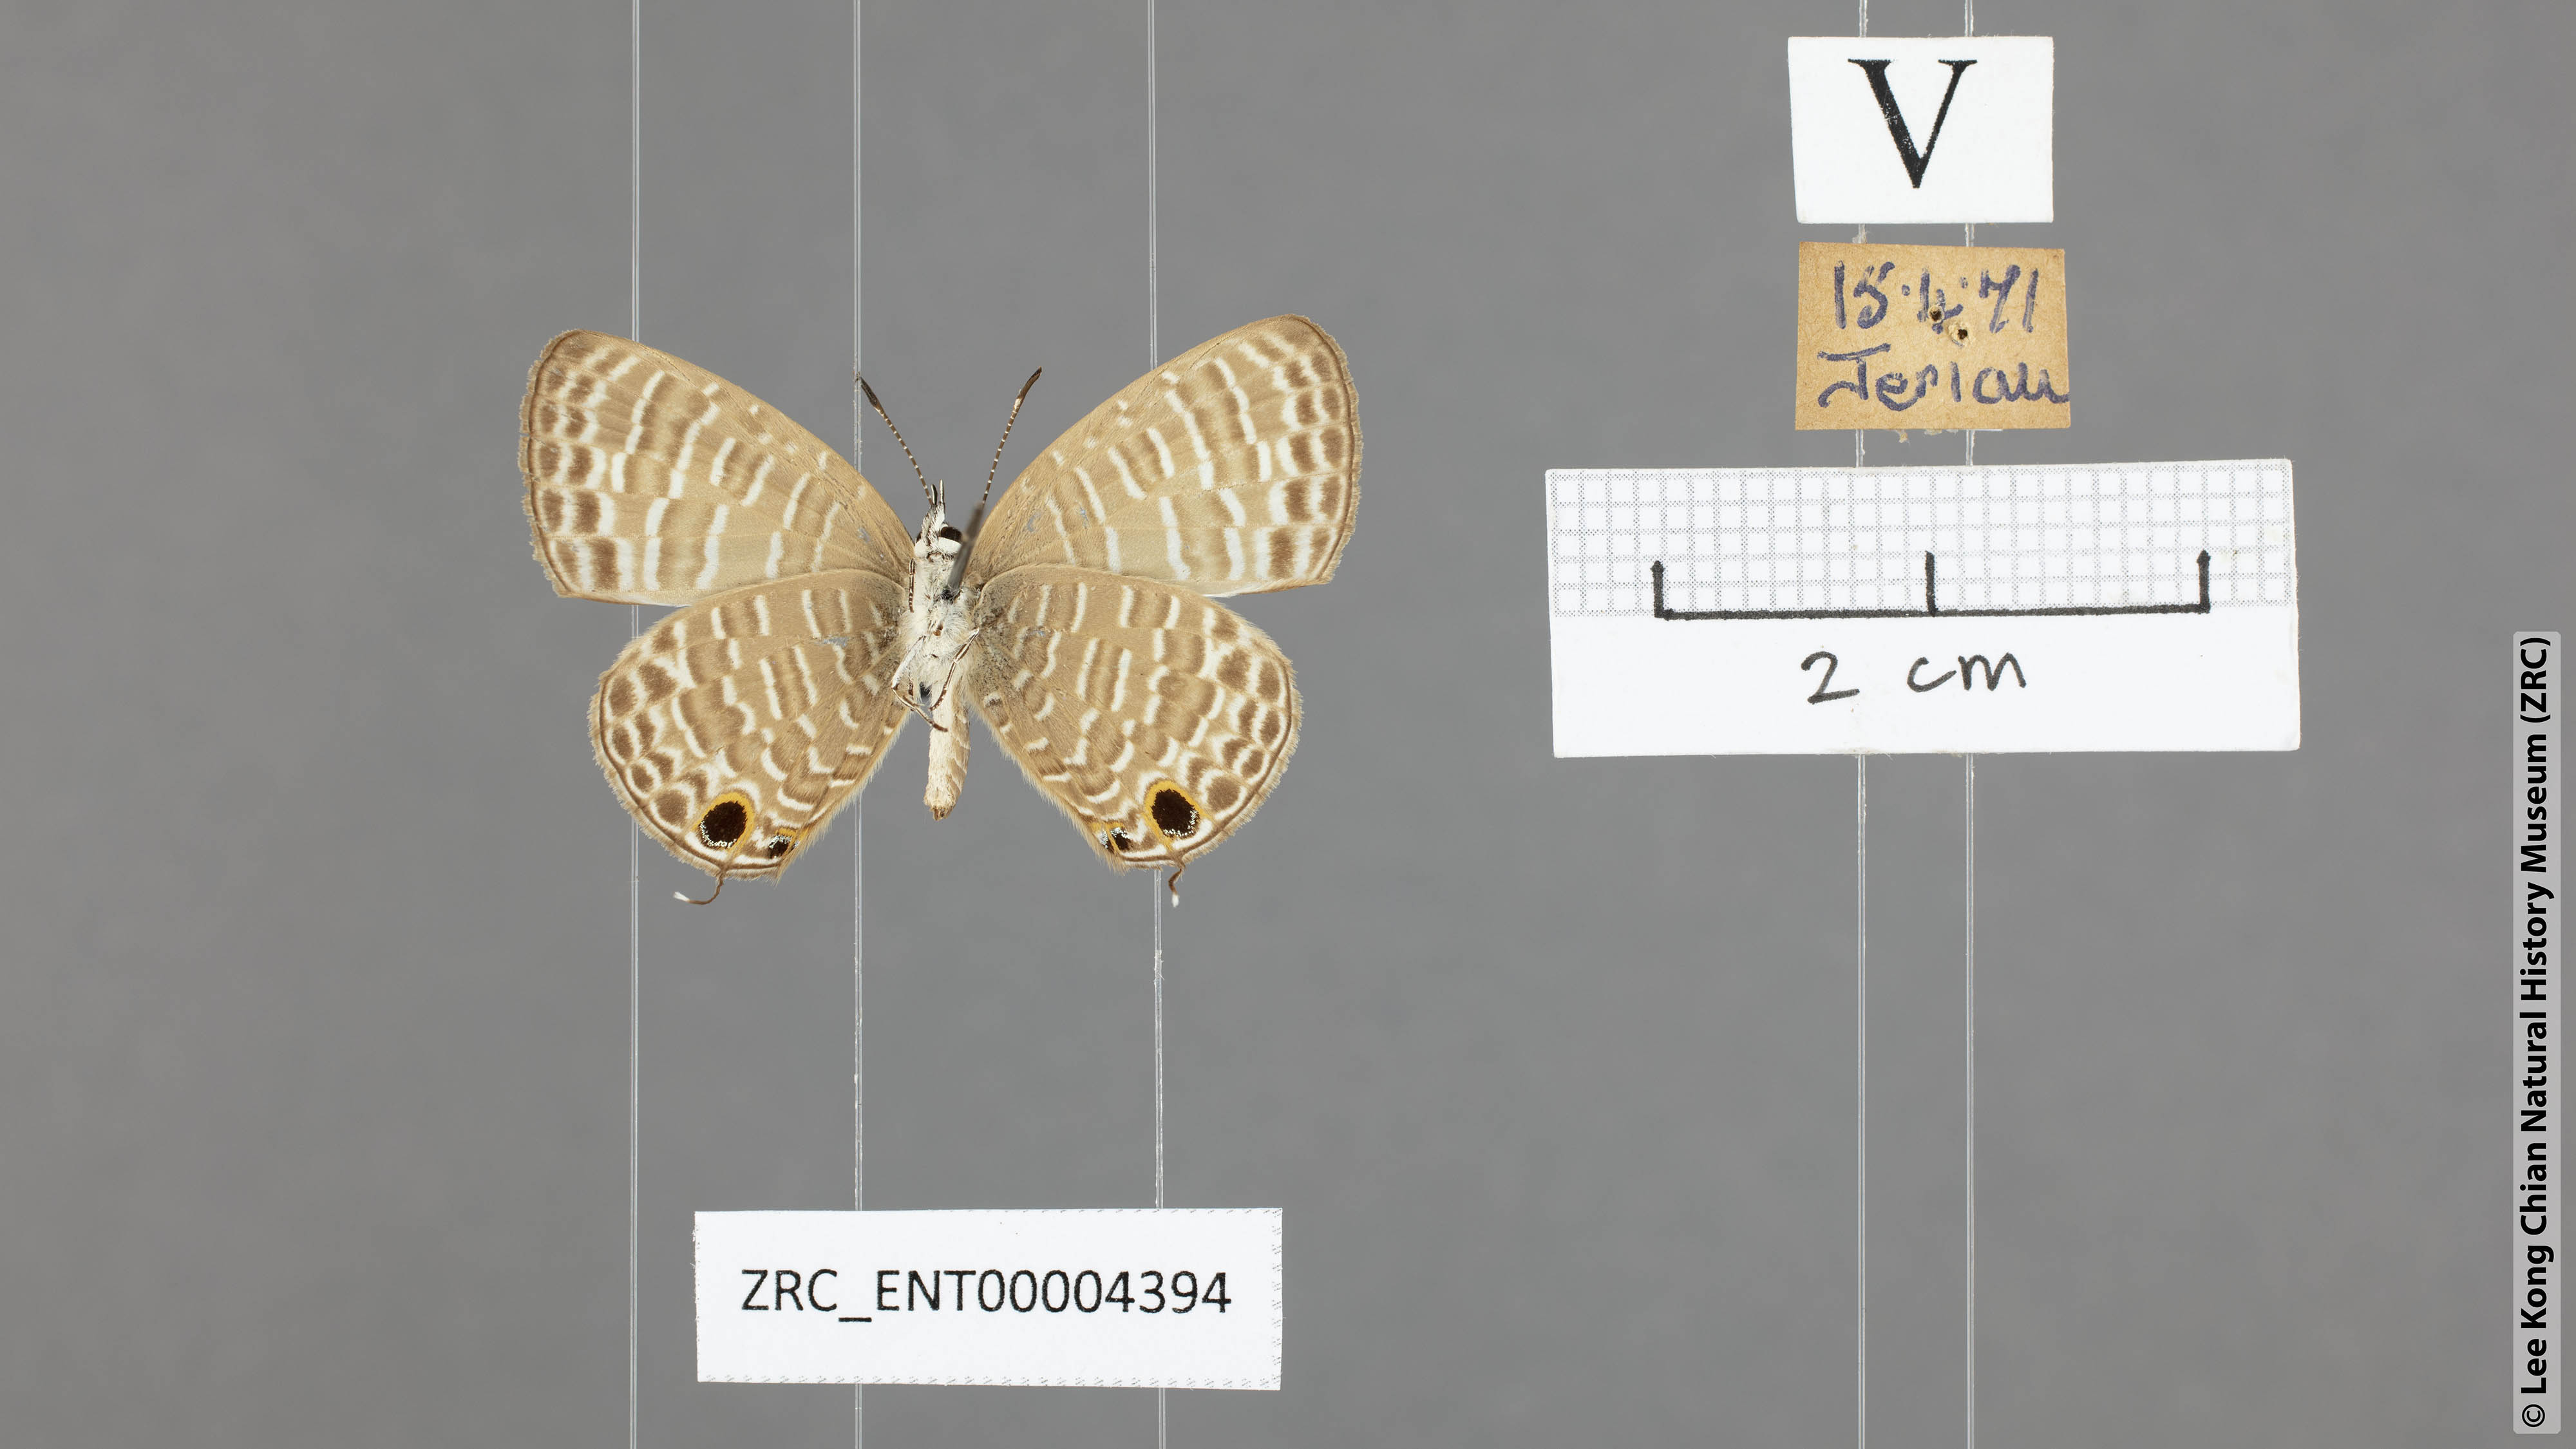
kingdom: Animalia
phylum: Arthropoda
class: Insecta
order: Lepidoptera
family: Lycaenidae
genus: Nacaduba
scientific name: Nacaduba beroe
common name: Opaque sixline blue
